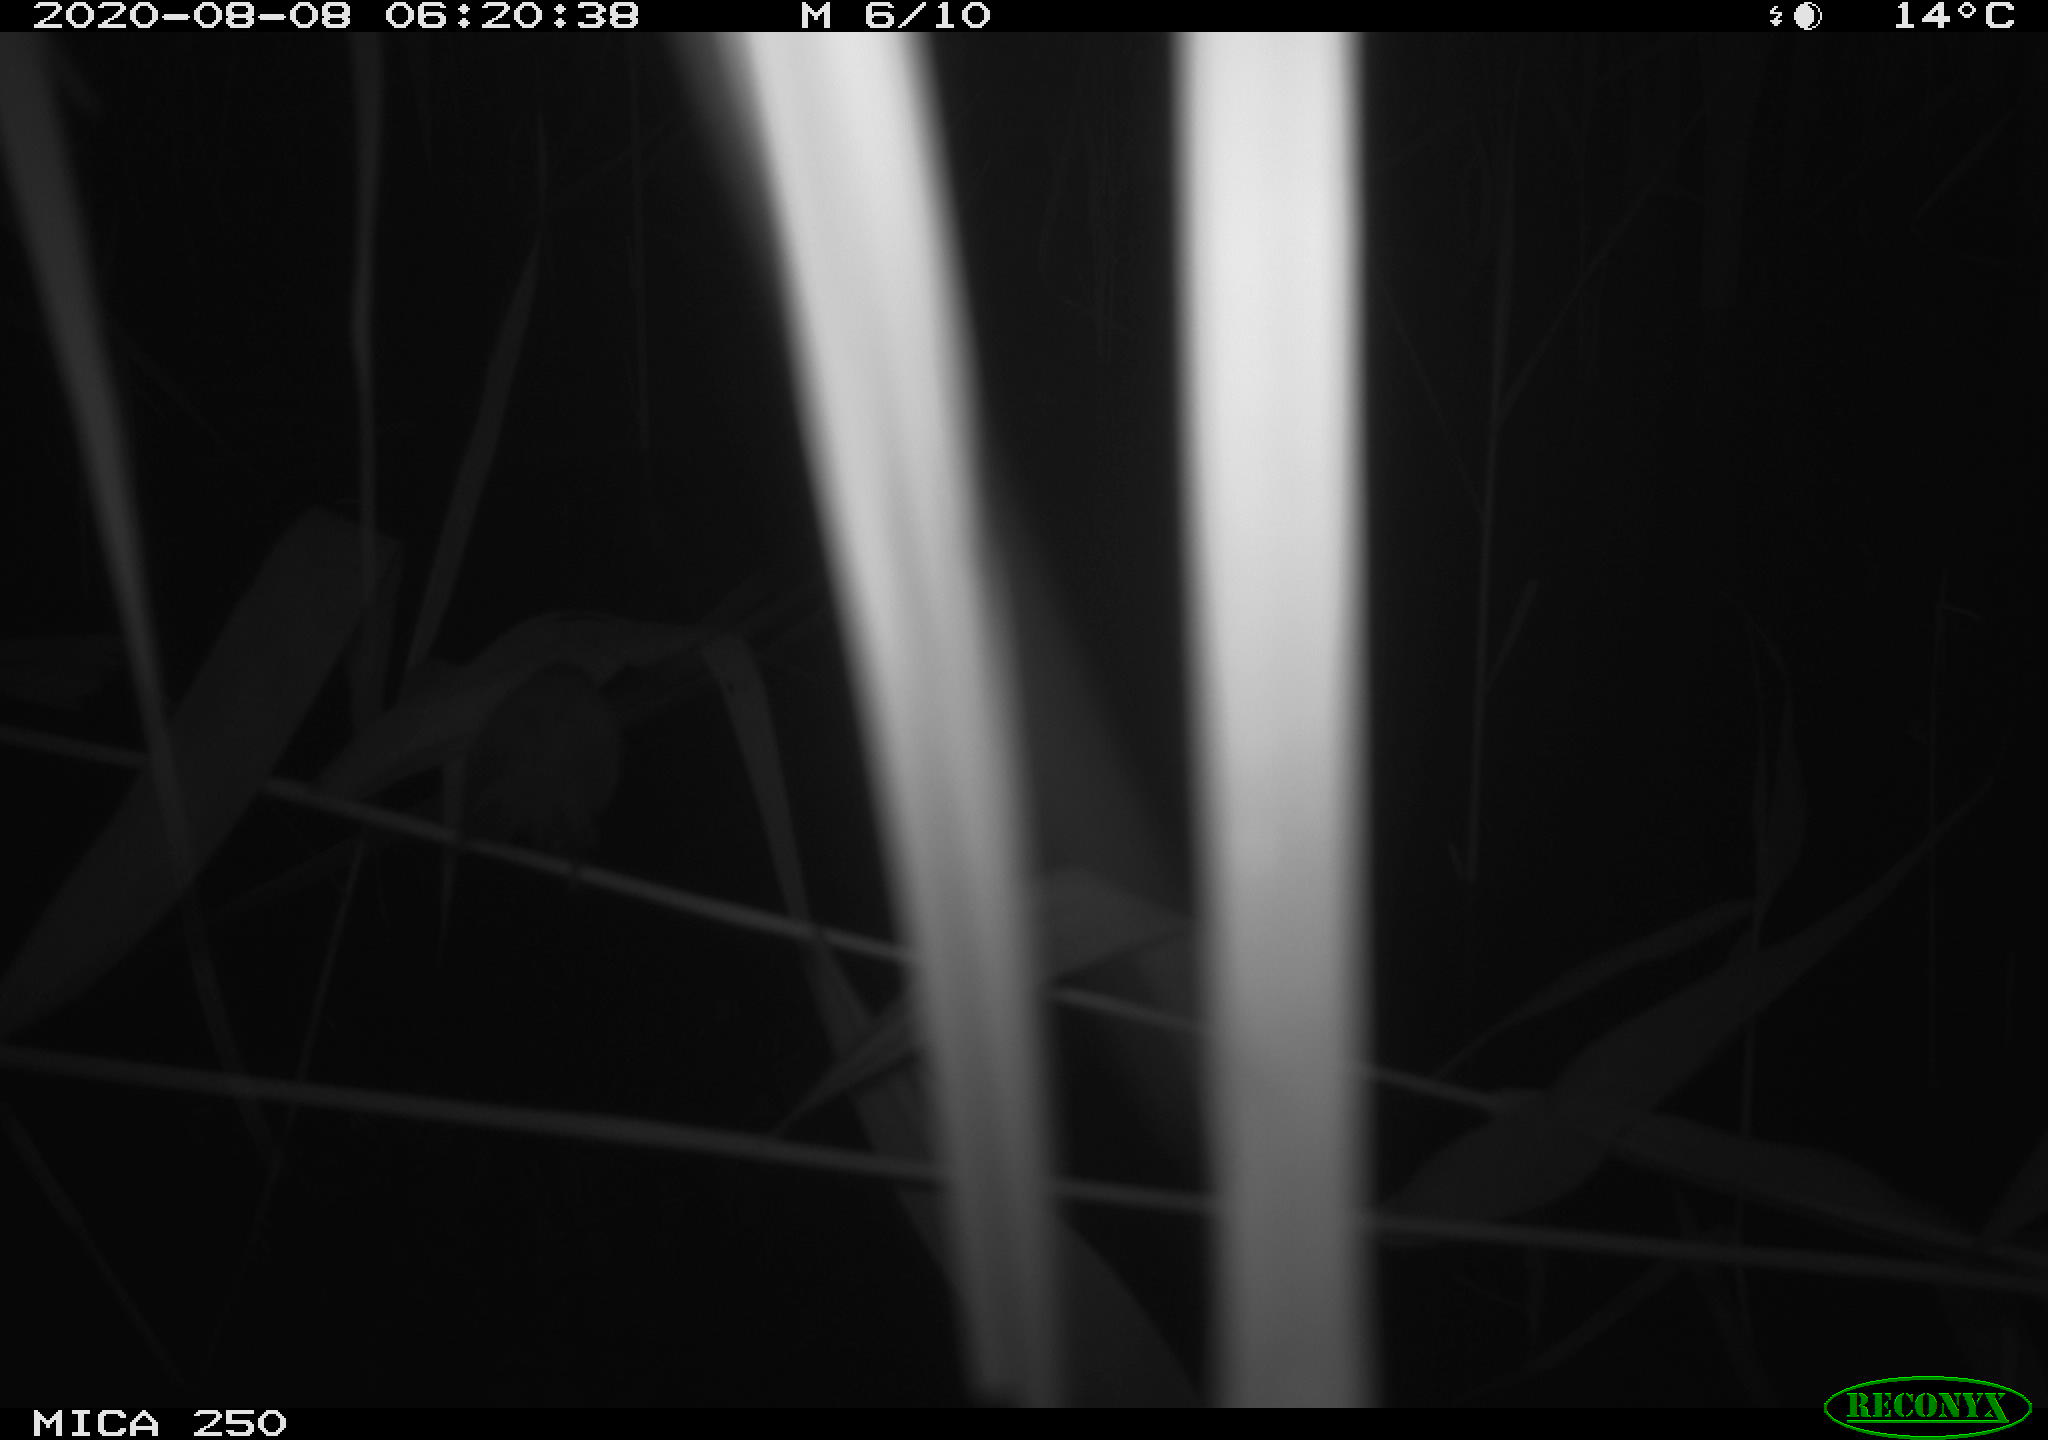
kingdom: Animalia
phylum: Chordata
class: Aves
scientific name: Aves
